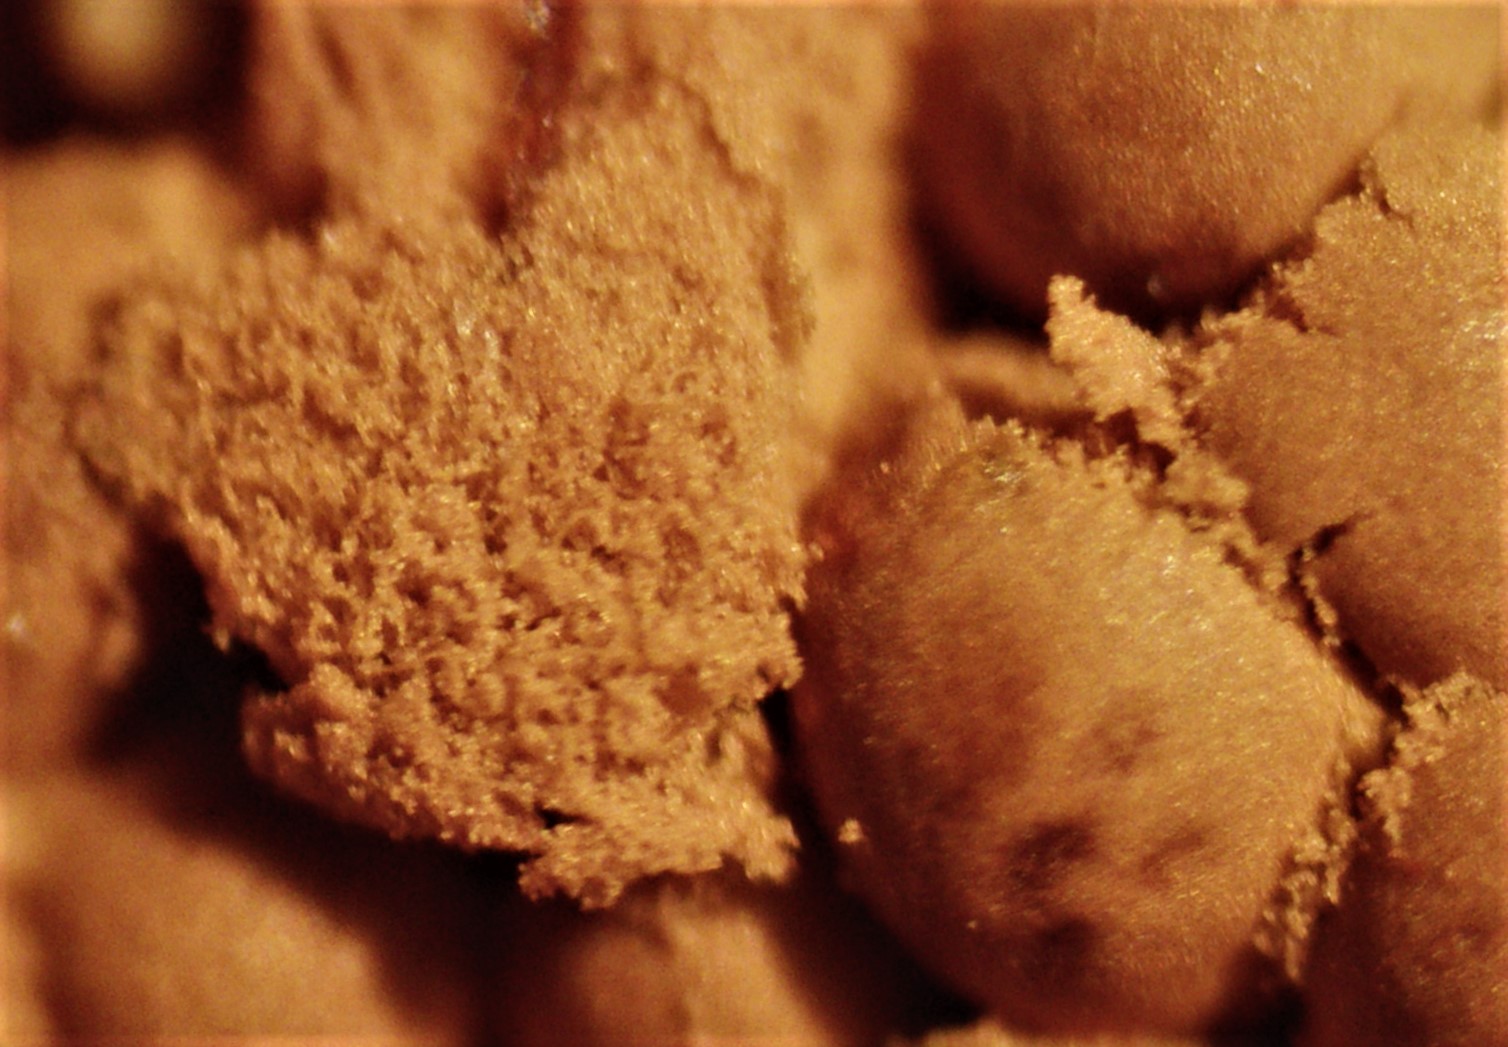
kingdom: Protozoa
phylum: Mycetozoa
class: Myxomycetes
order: Trichiales
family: Arcyriaceae
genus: Arcyria
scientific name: Arcyria ferruginea
